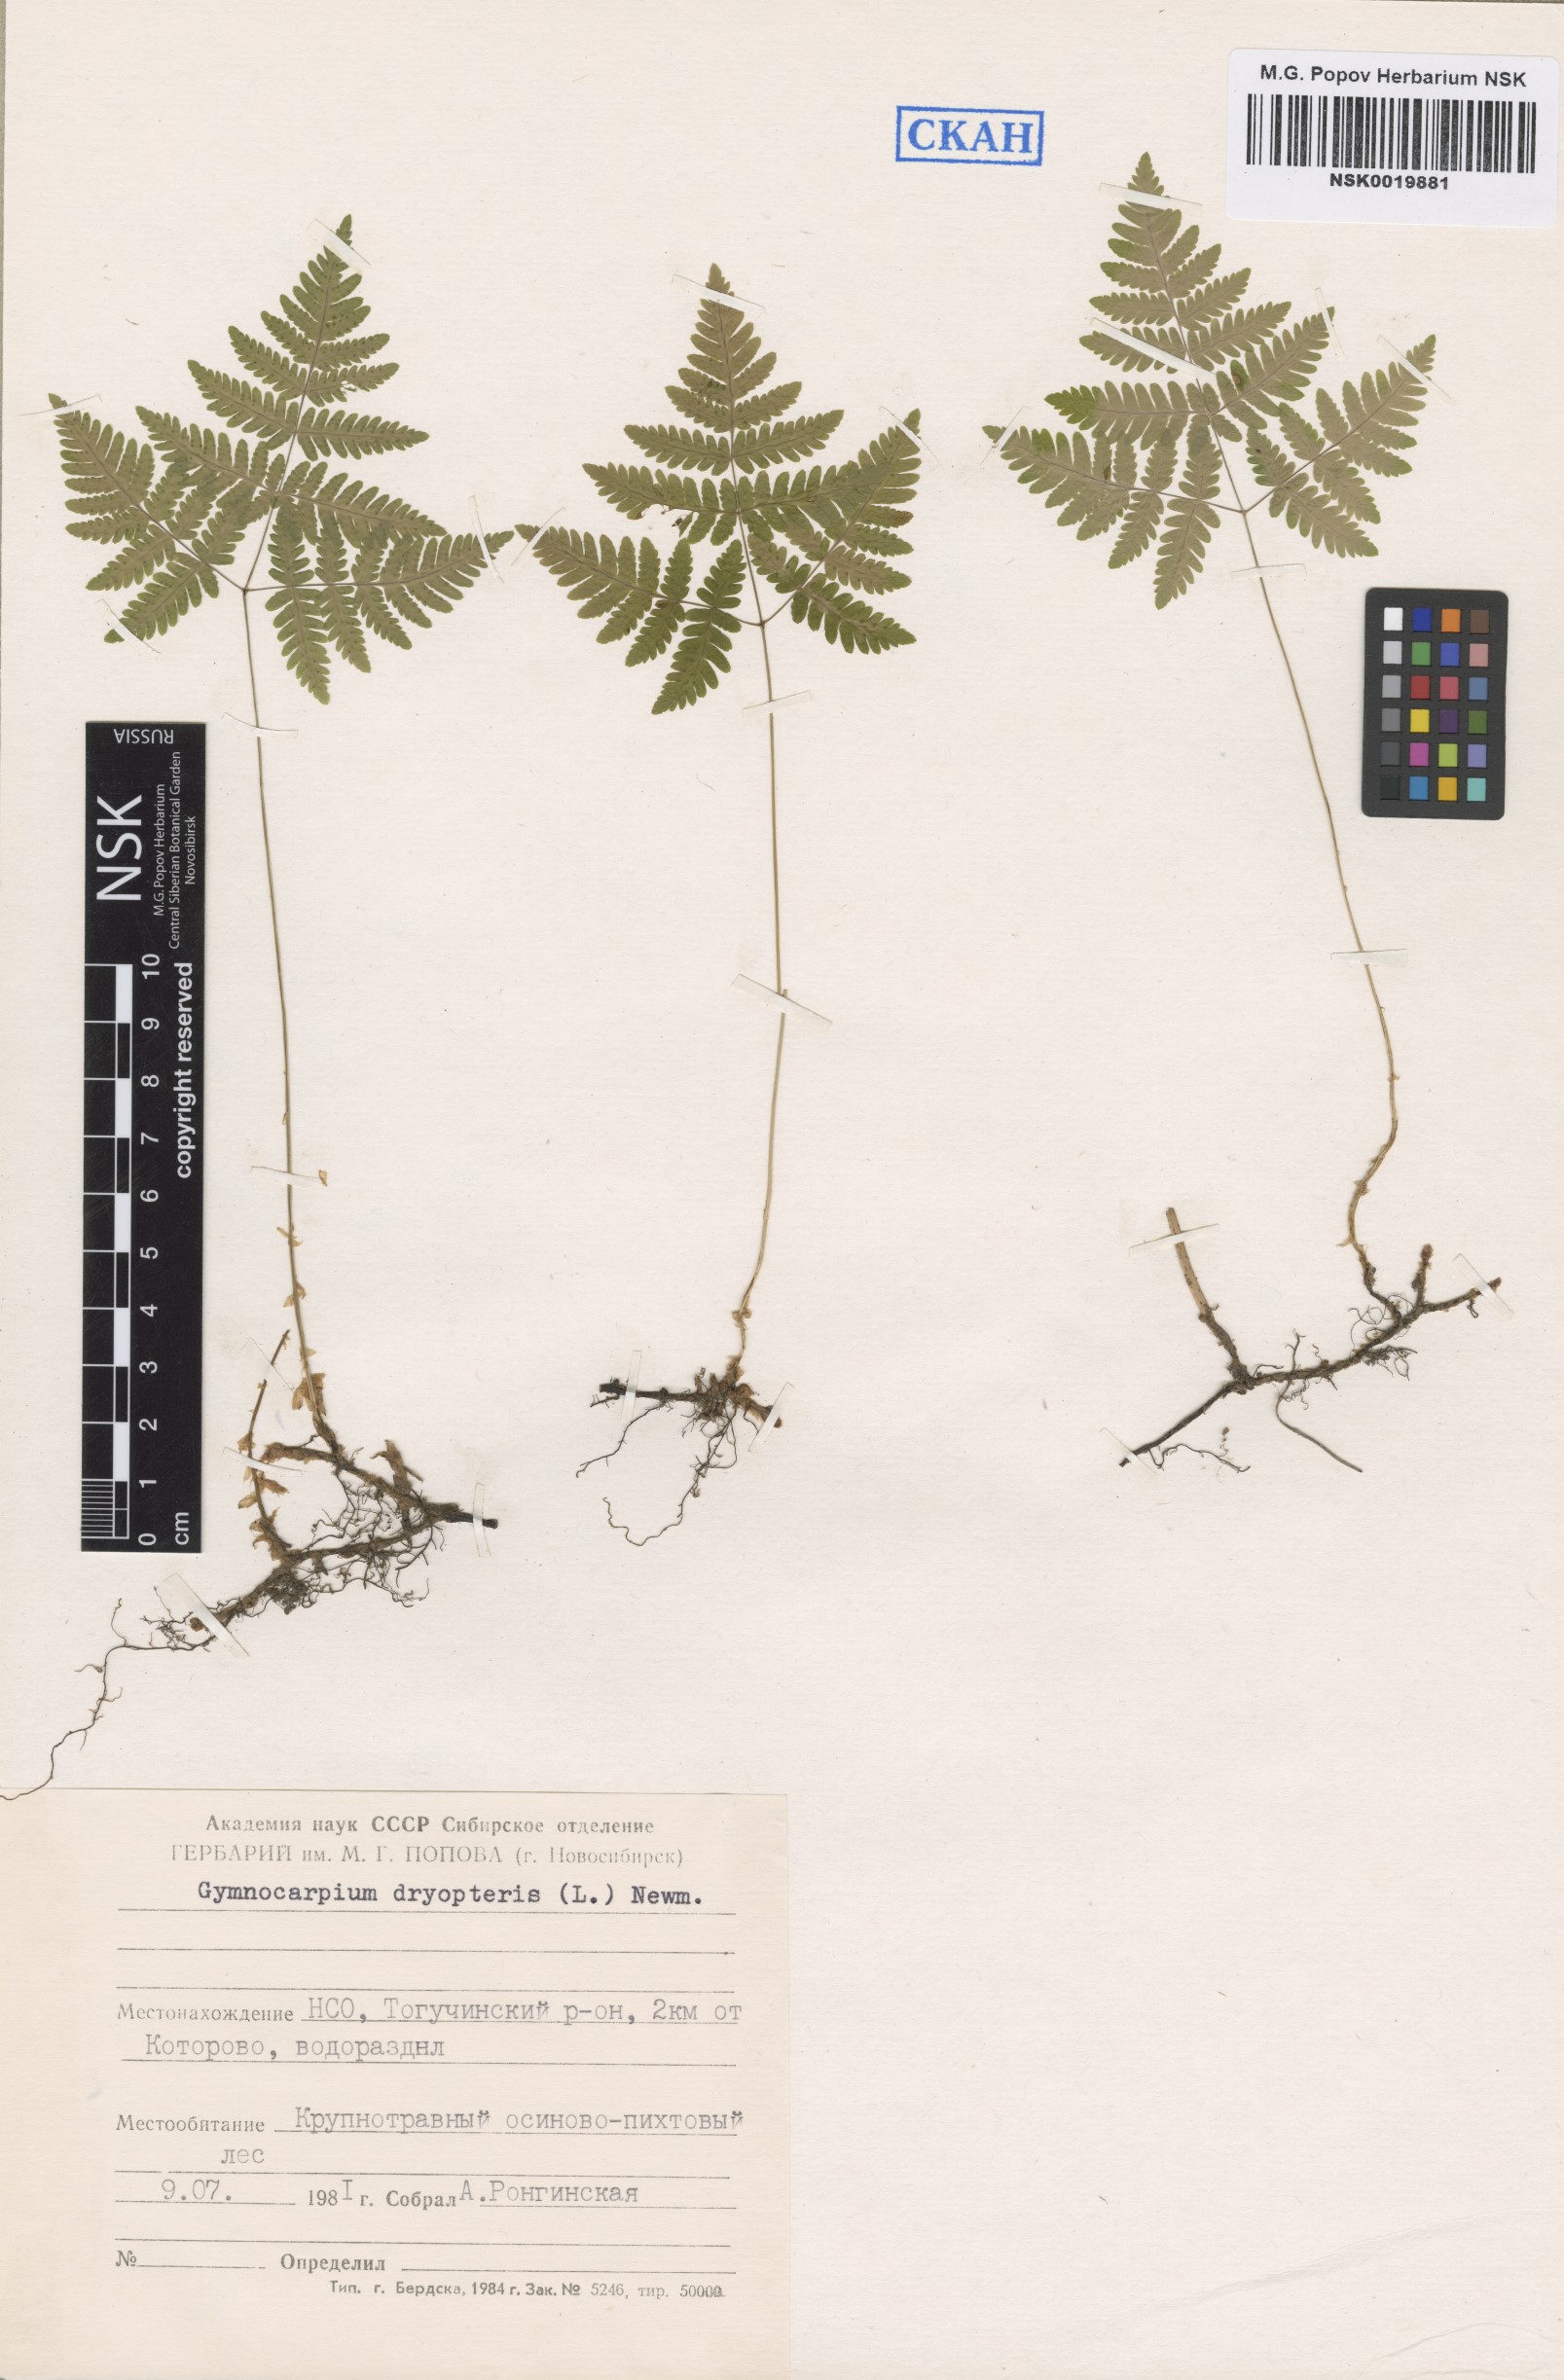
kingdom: Plantae
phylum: Tracheophyta
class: Polypodiopsida
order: Polypodiales
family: Cystopteridaceae
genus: Gymnocarpium
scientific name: Gymnocarpium dryopteris
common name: Oak fern
